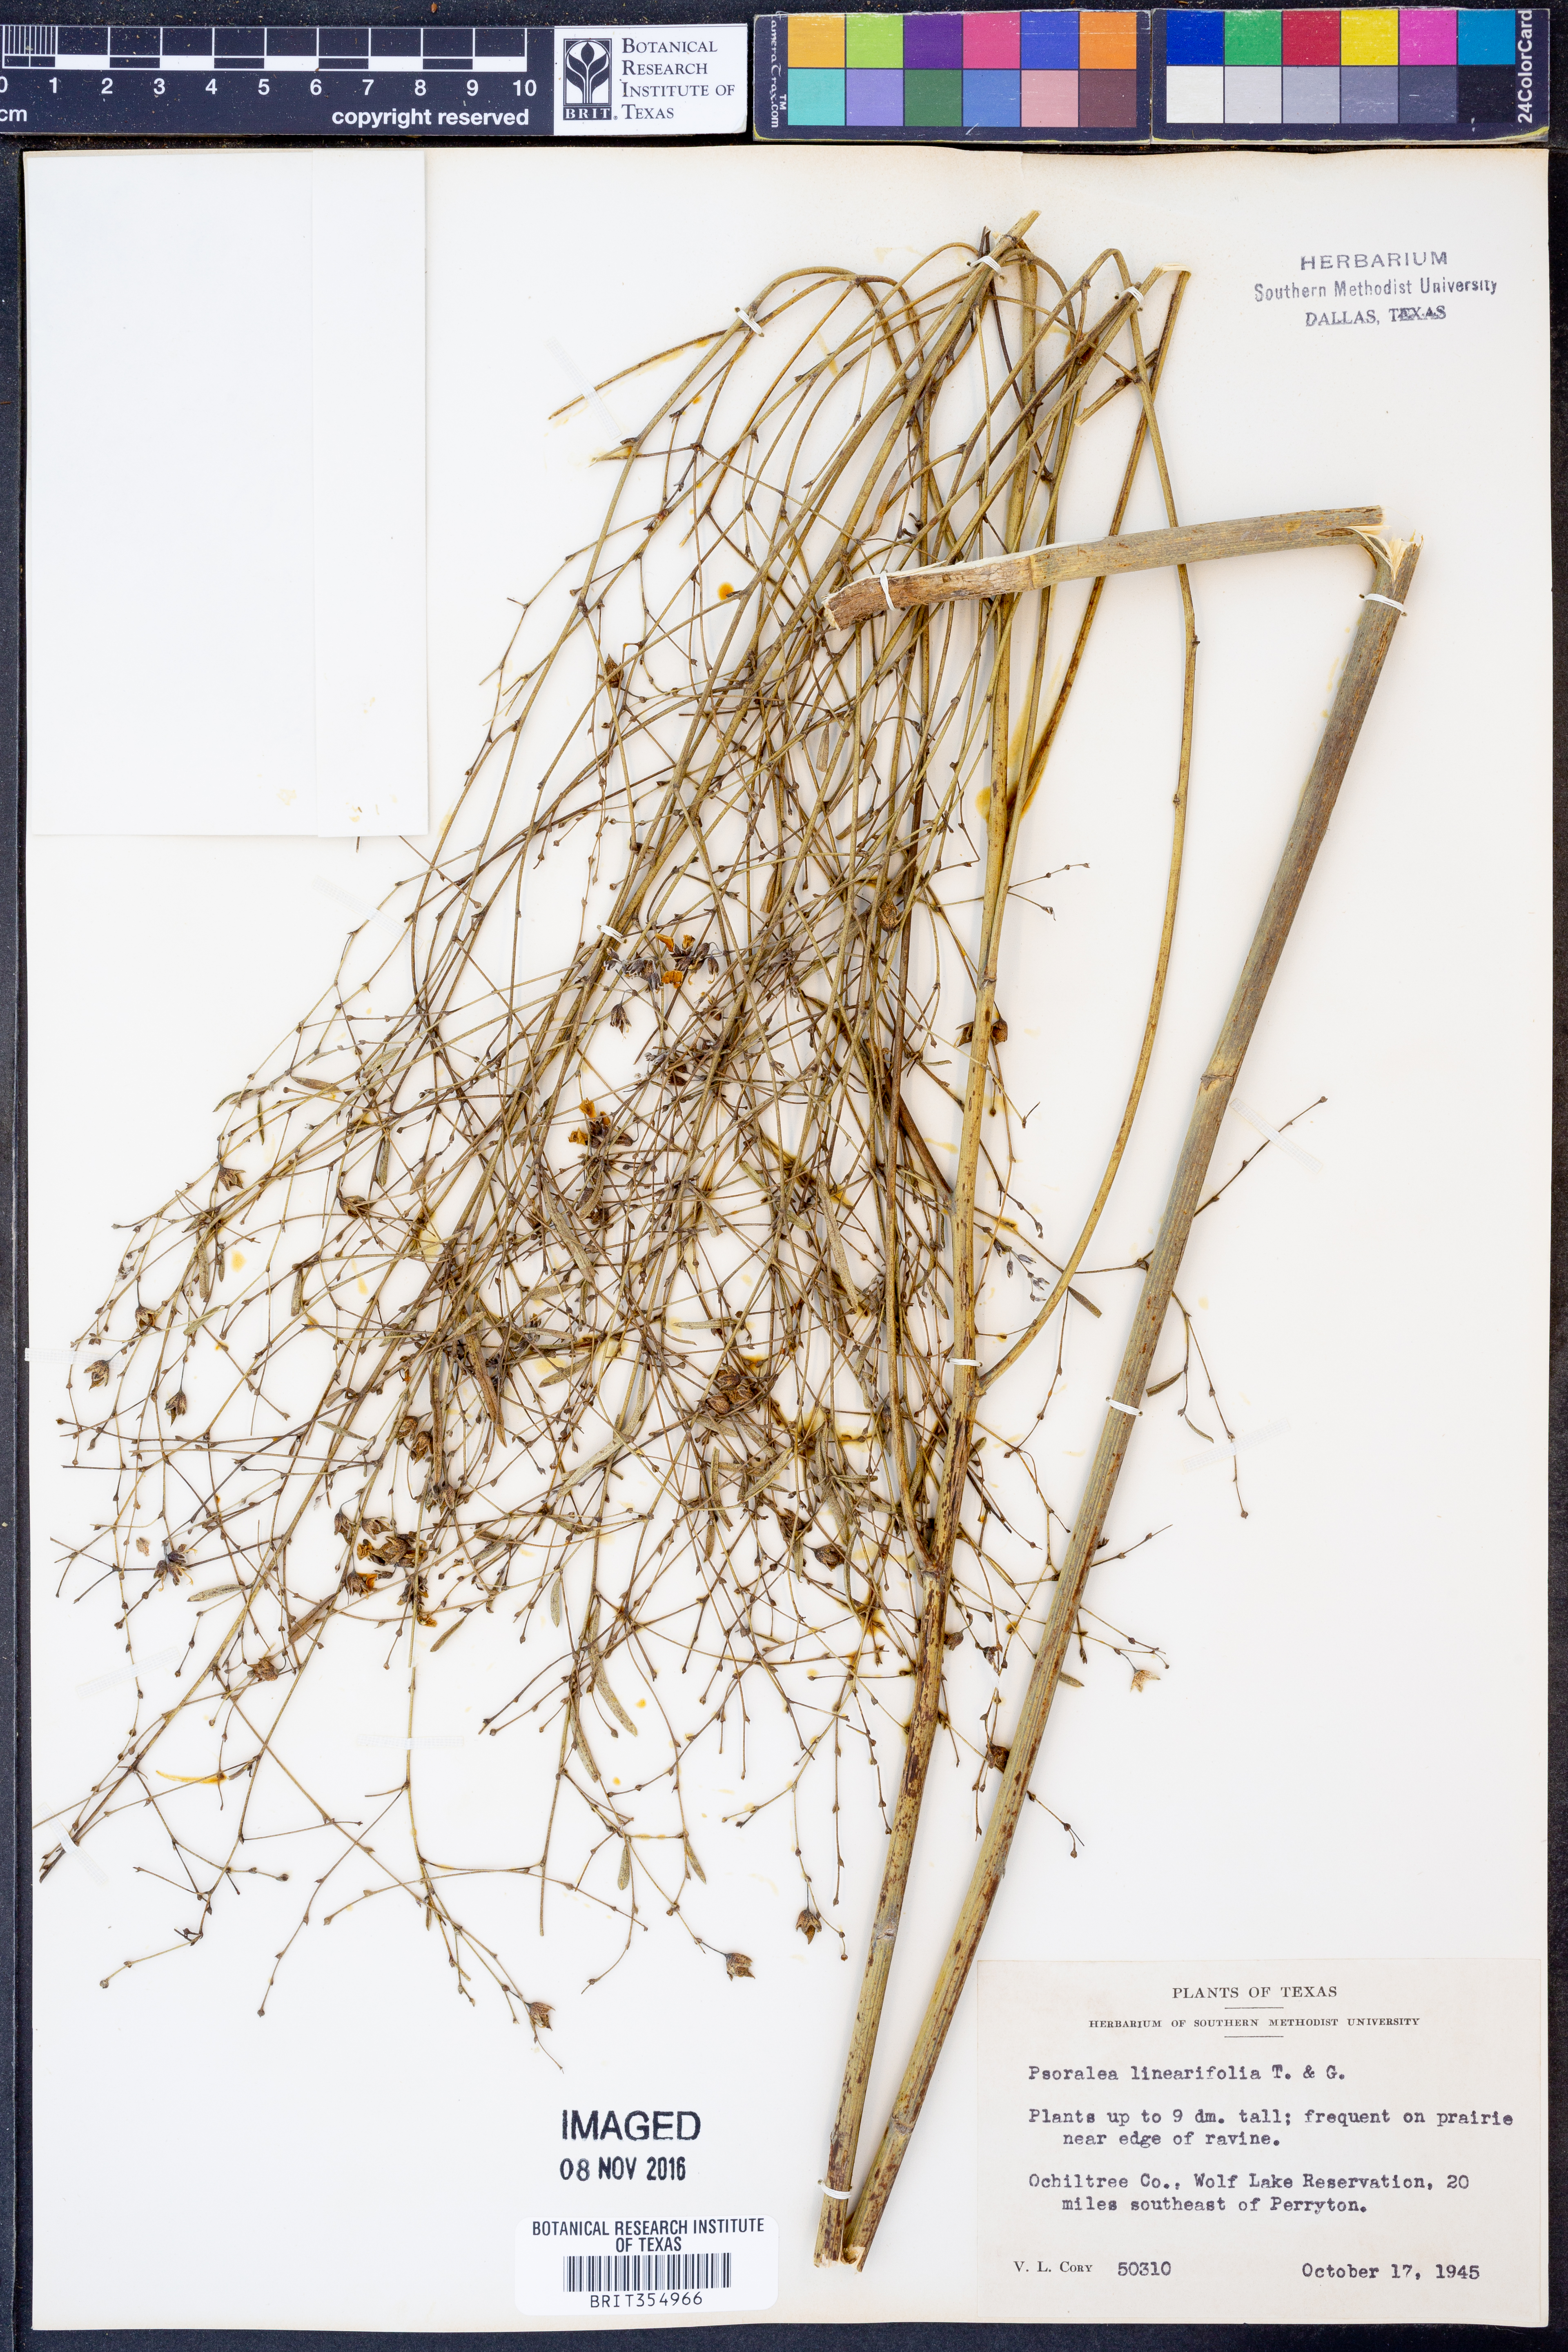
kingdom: Plantae
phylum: Tracheophyta
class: Magnoliopsida
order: Fabales
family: Fabaceae
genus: Pediomelum
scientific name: Pediomelum linearifolium
